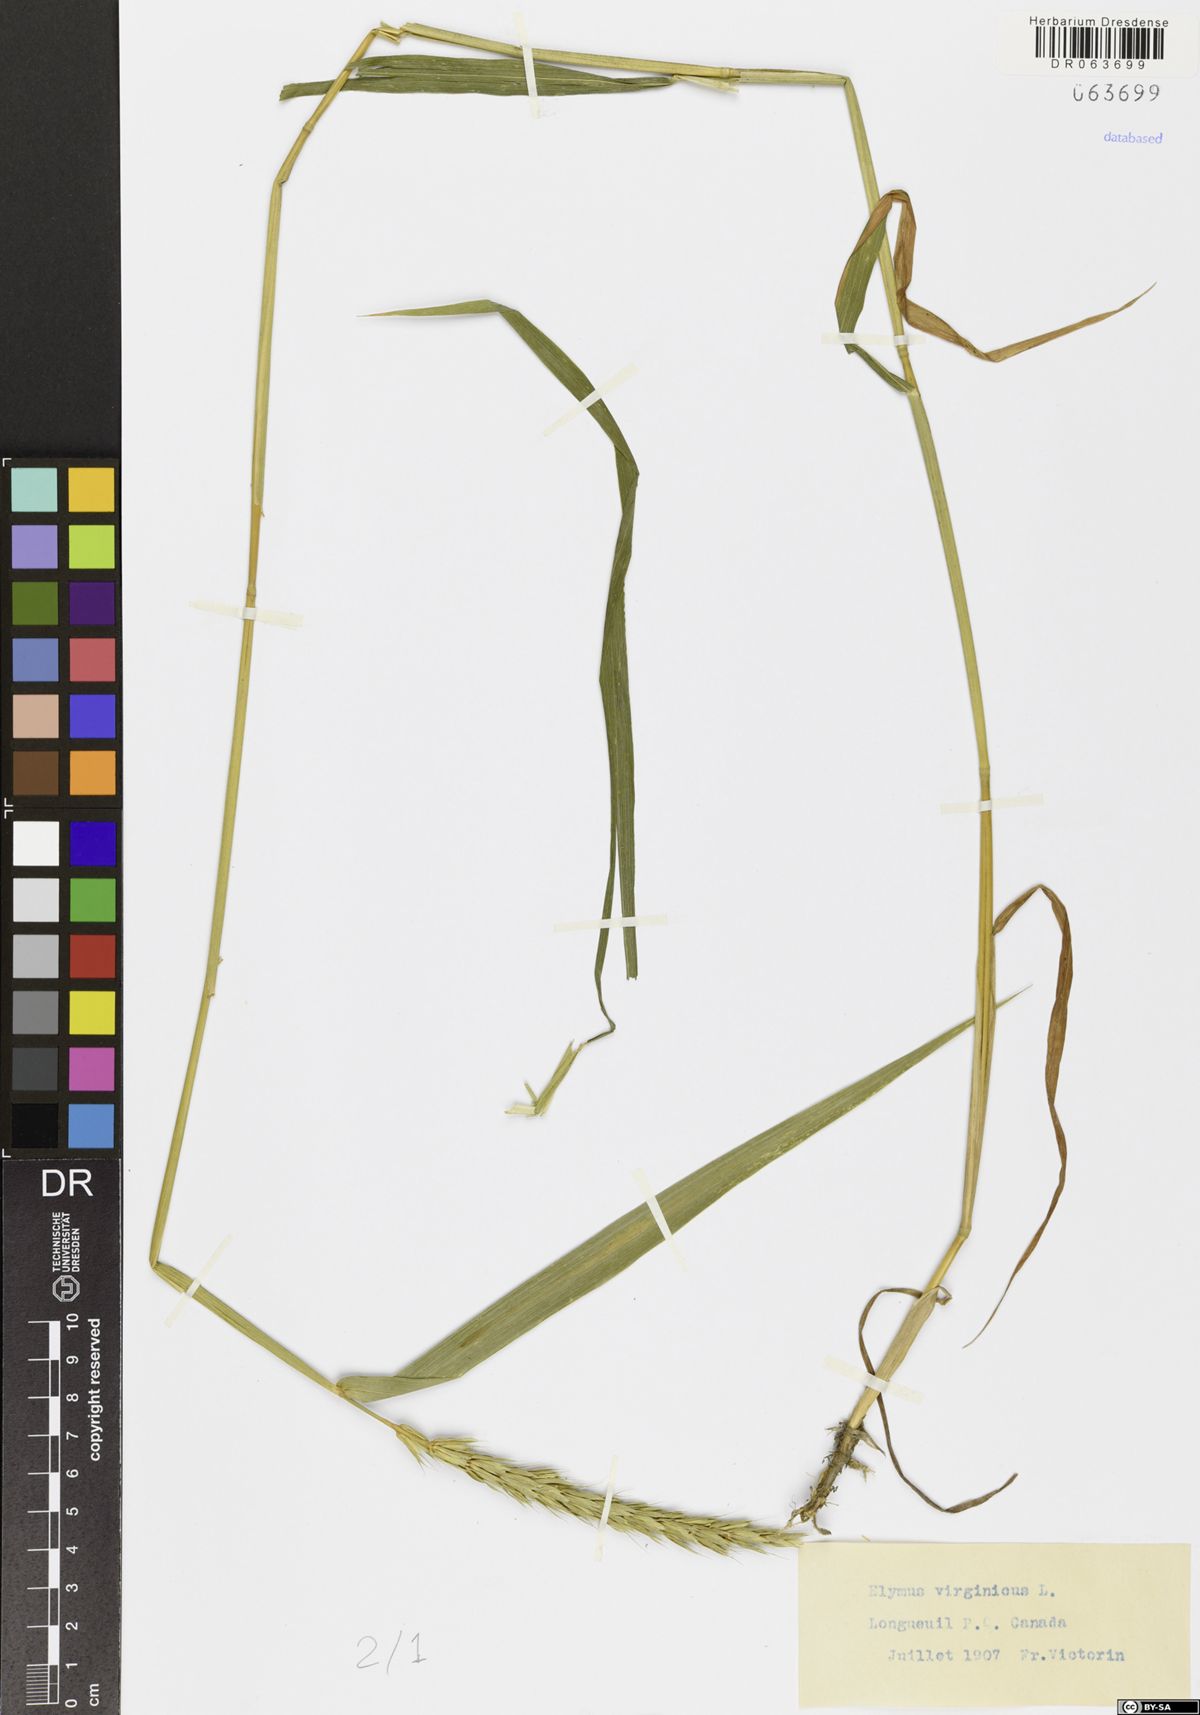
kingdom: Plantae
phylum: Tracheophyta
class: Liliopsida
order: Poales
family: Poaceae
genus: Elymus
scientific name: Elymus virginicus
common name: Common eastern wildrye
